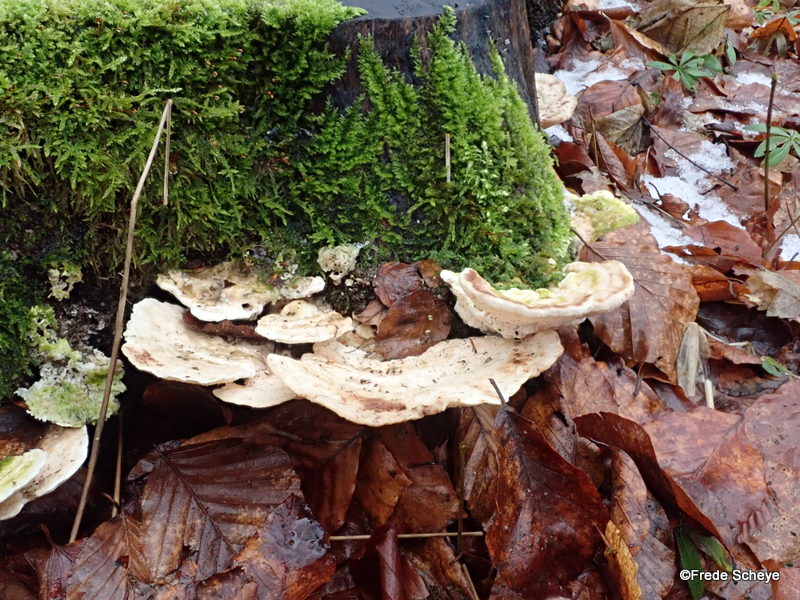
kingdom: Fungi
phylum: Basidiomycota
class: Agaricomycetes
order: Polyporales
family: Polyporaceae
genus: Trametes
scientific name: Trametes gibbosa
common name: puklet læderporesvamp
